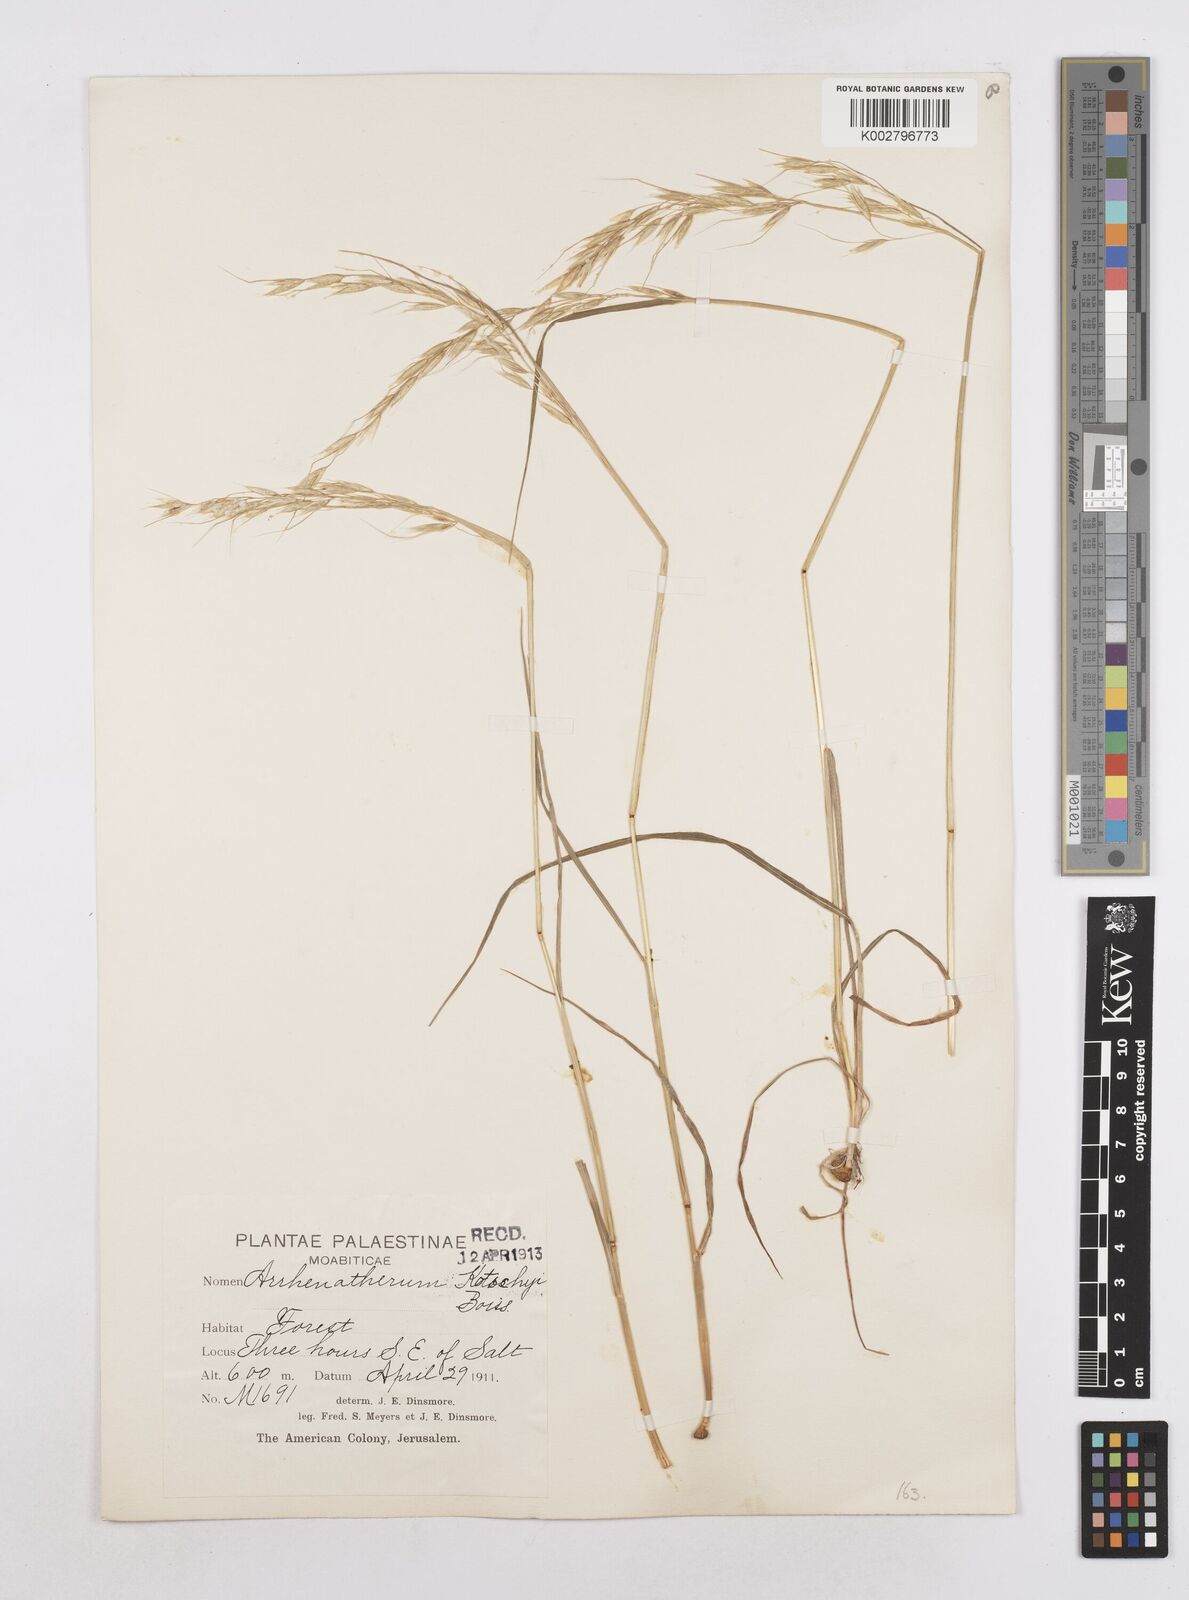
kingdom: Plantae
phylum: Tracheophyta
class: Liliopsida
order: Poales
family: Poaceae
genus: Arrhenatherum
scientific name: Arrhenatherum kotschyi
